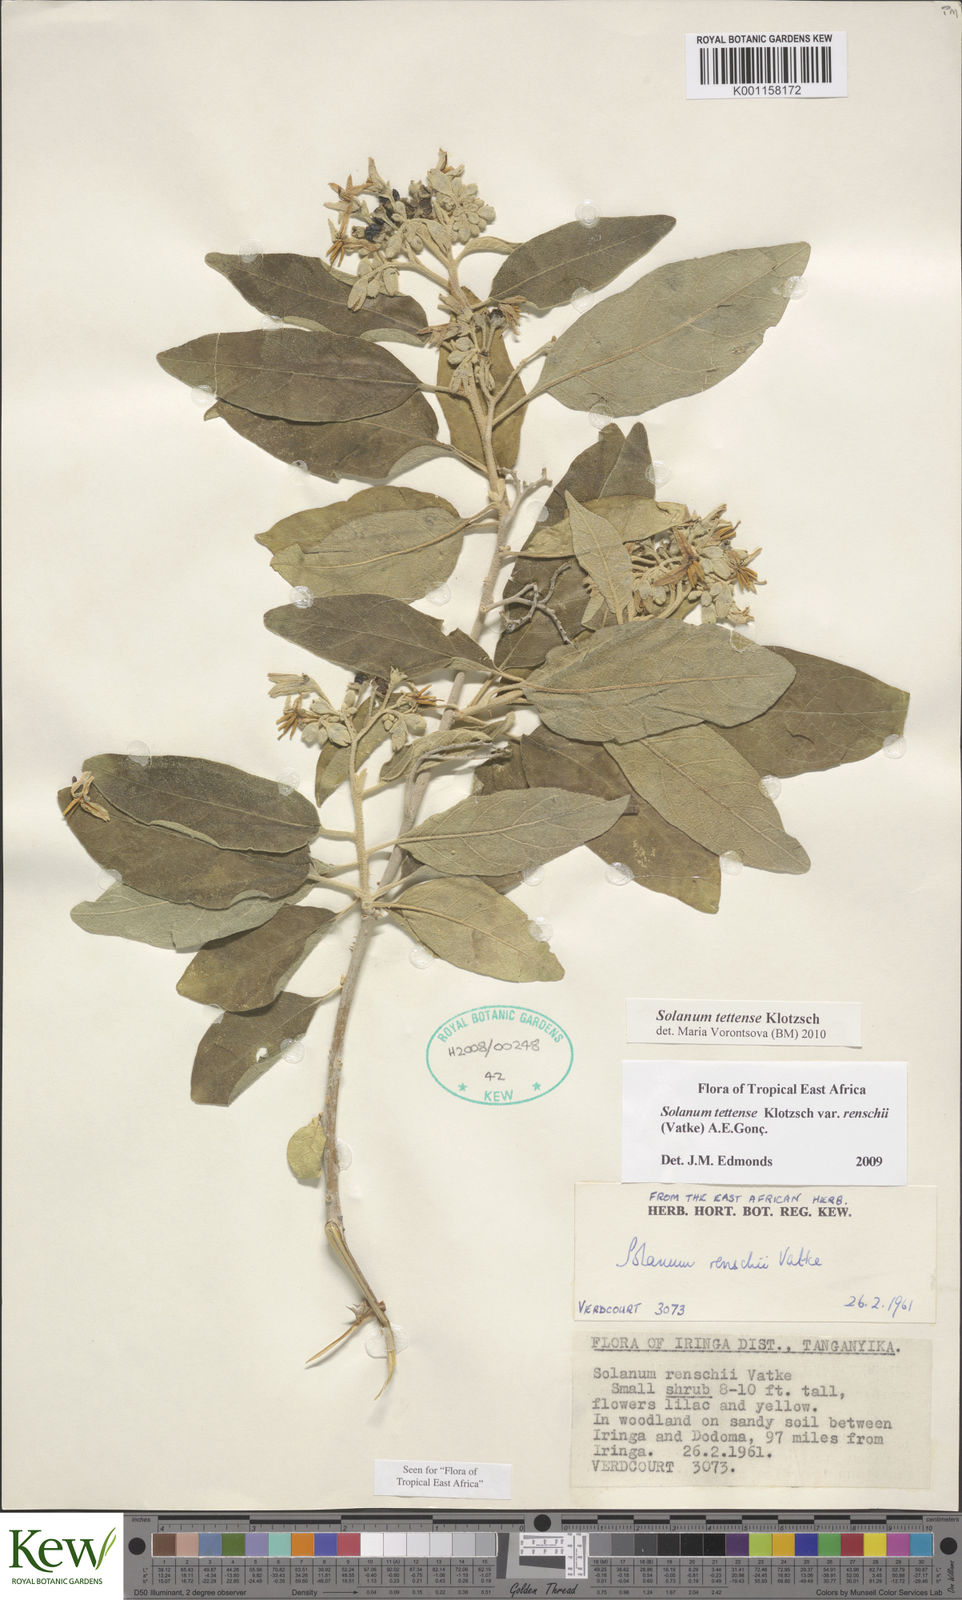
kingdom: Plantae
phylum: Tracheophyta
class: Magnoliopsida
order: Solanales
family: Solanaceae
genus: Solanum
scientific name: Solanum tettense
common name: Mozambique bitter apple
